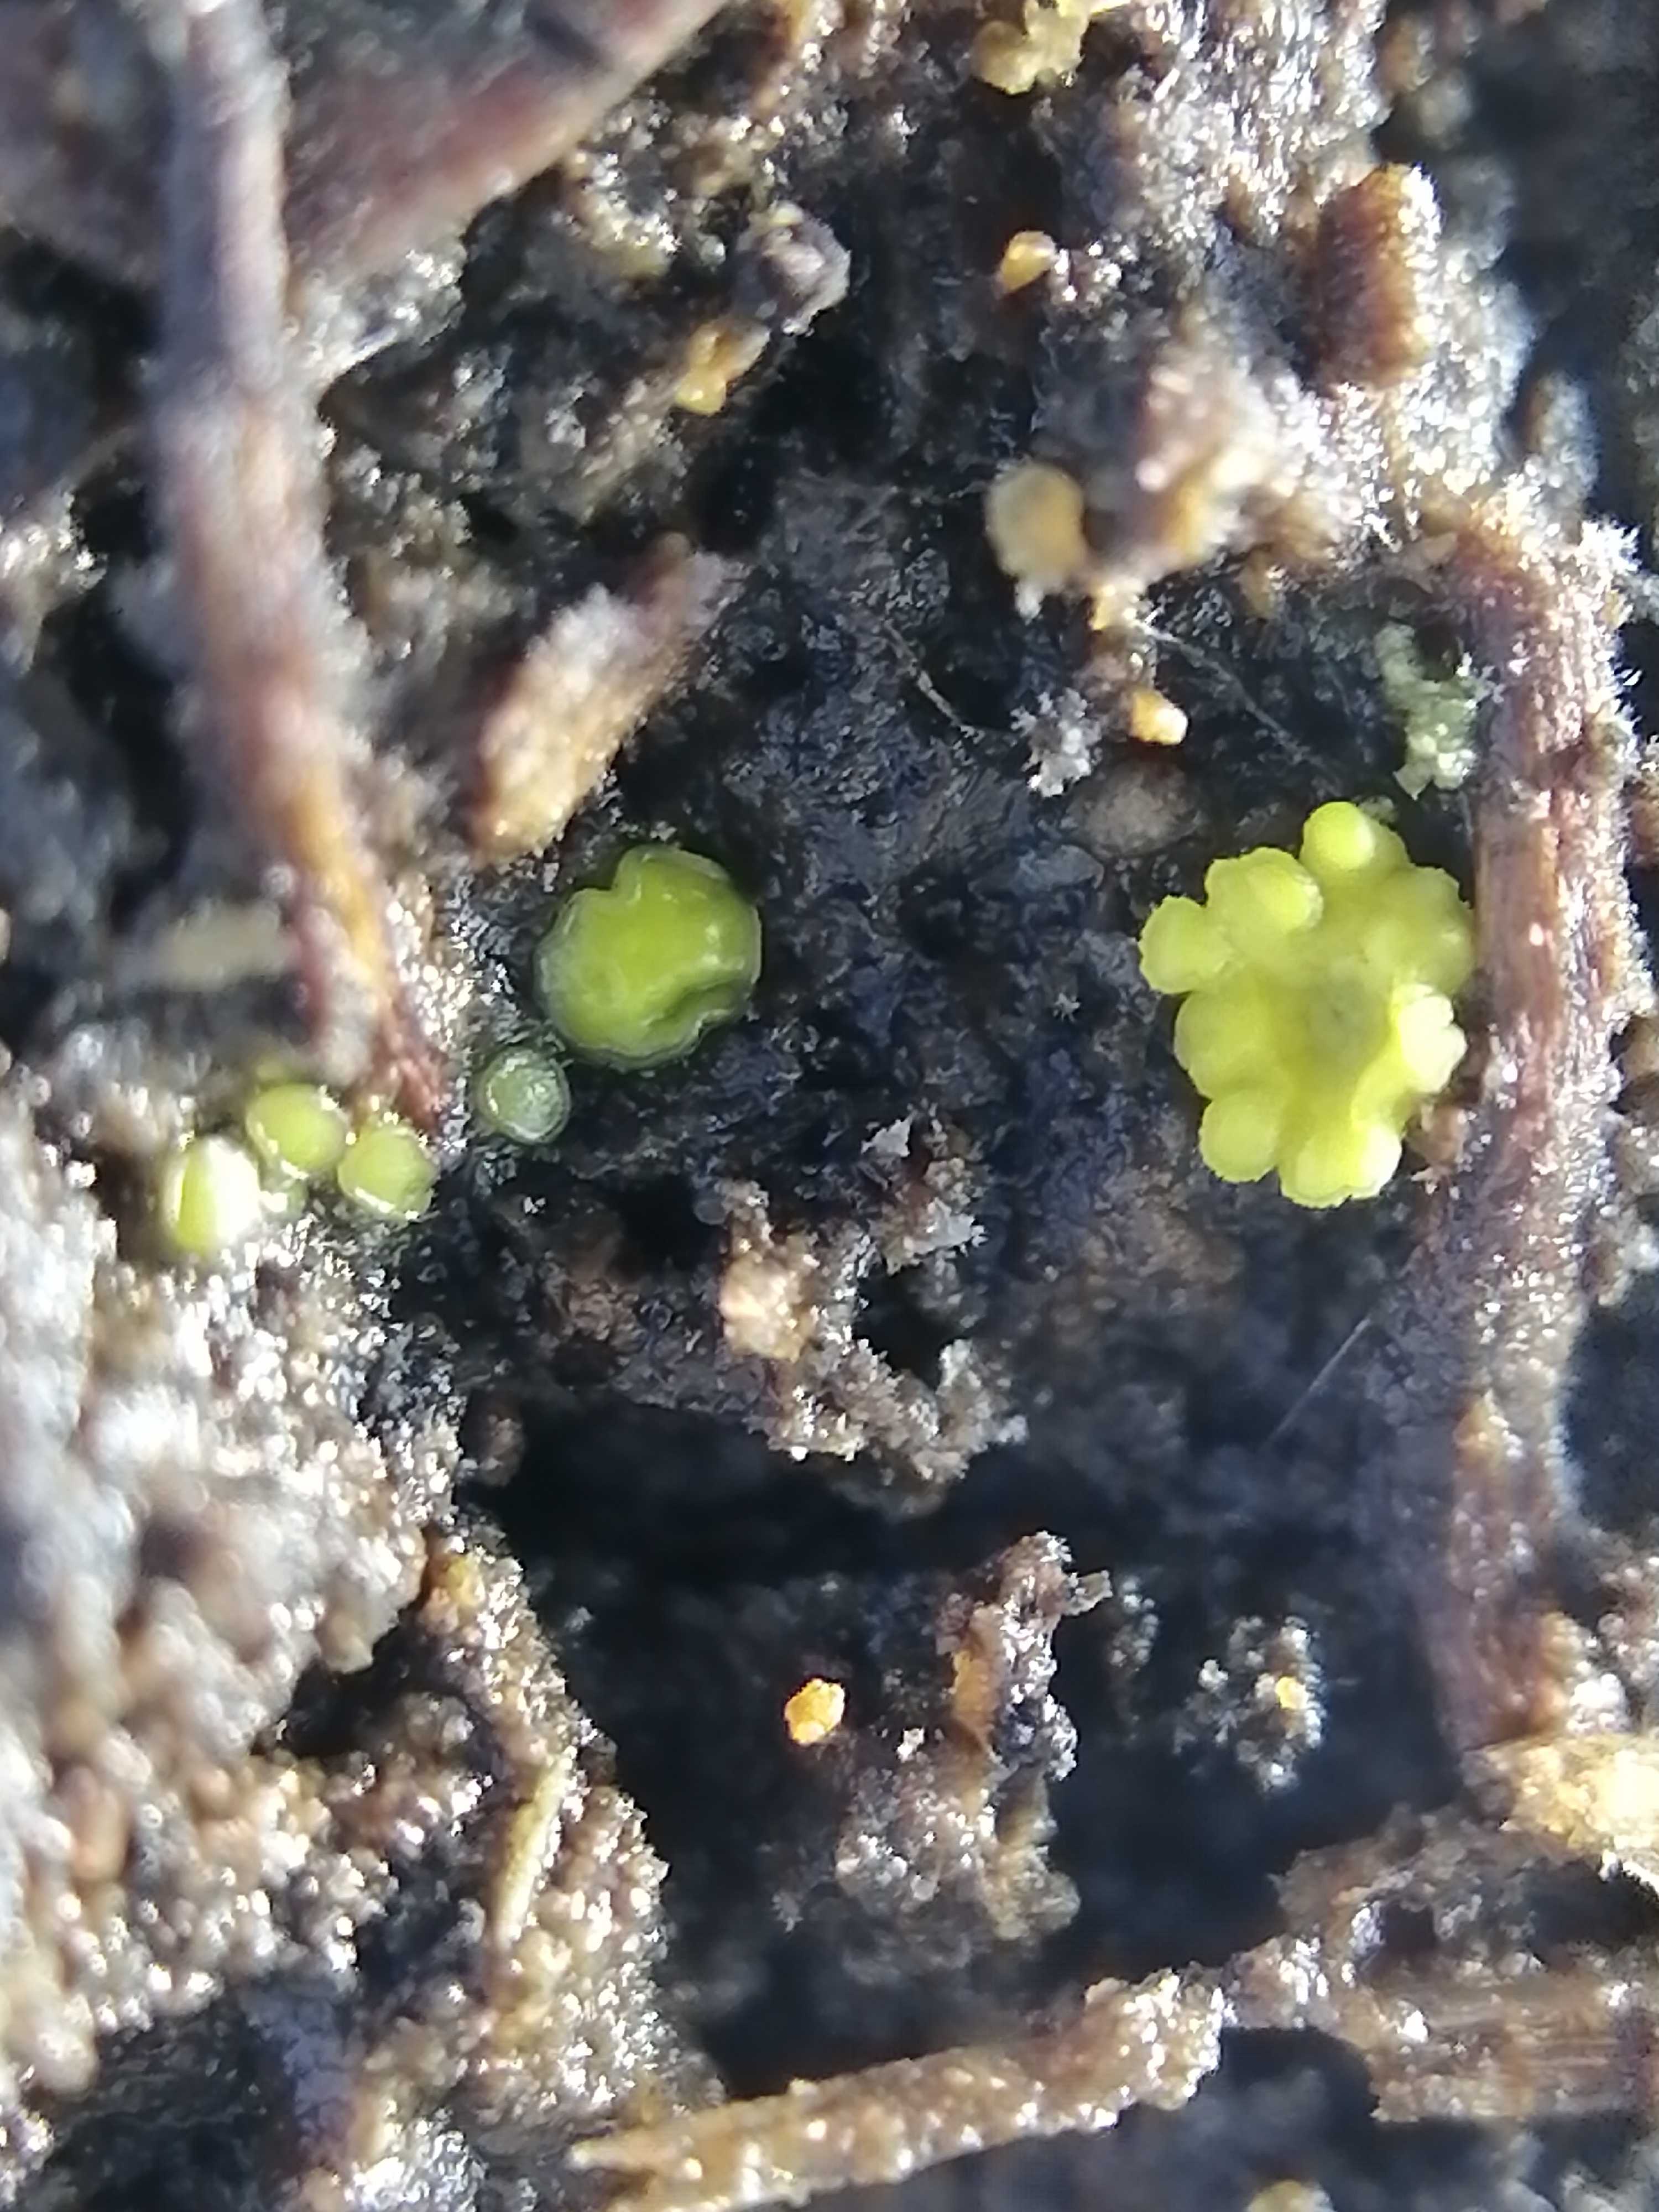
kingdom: Fungi
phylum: Ascomycota
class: Leotiomycetes
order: Helotiales
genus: Lemalis
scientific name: Lemalis aurea
